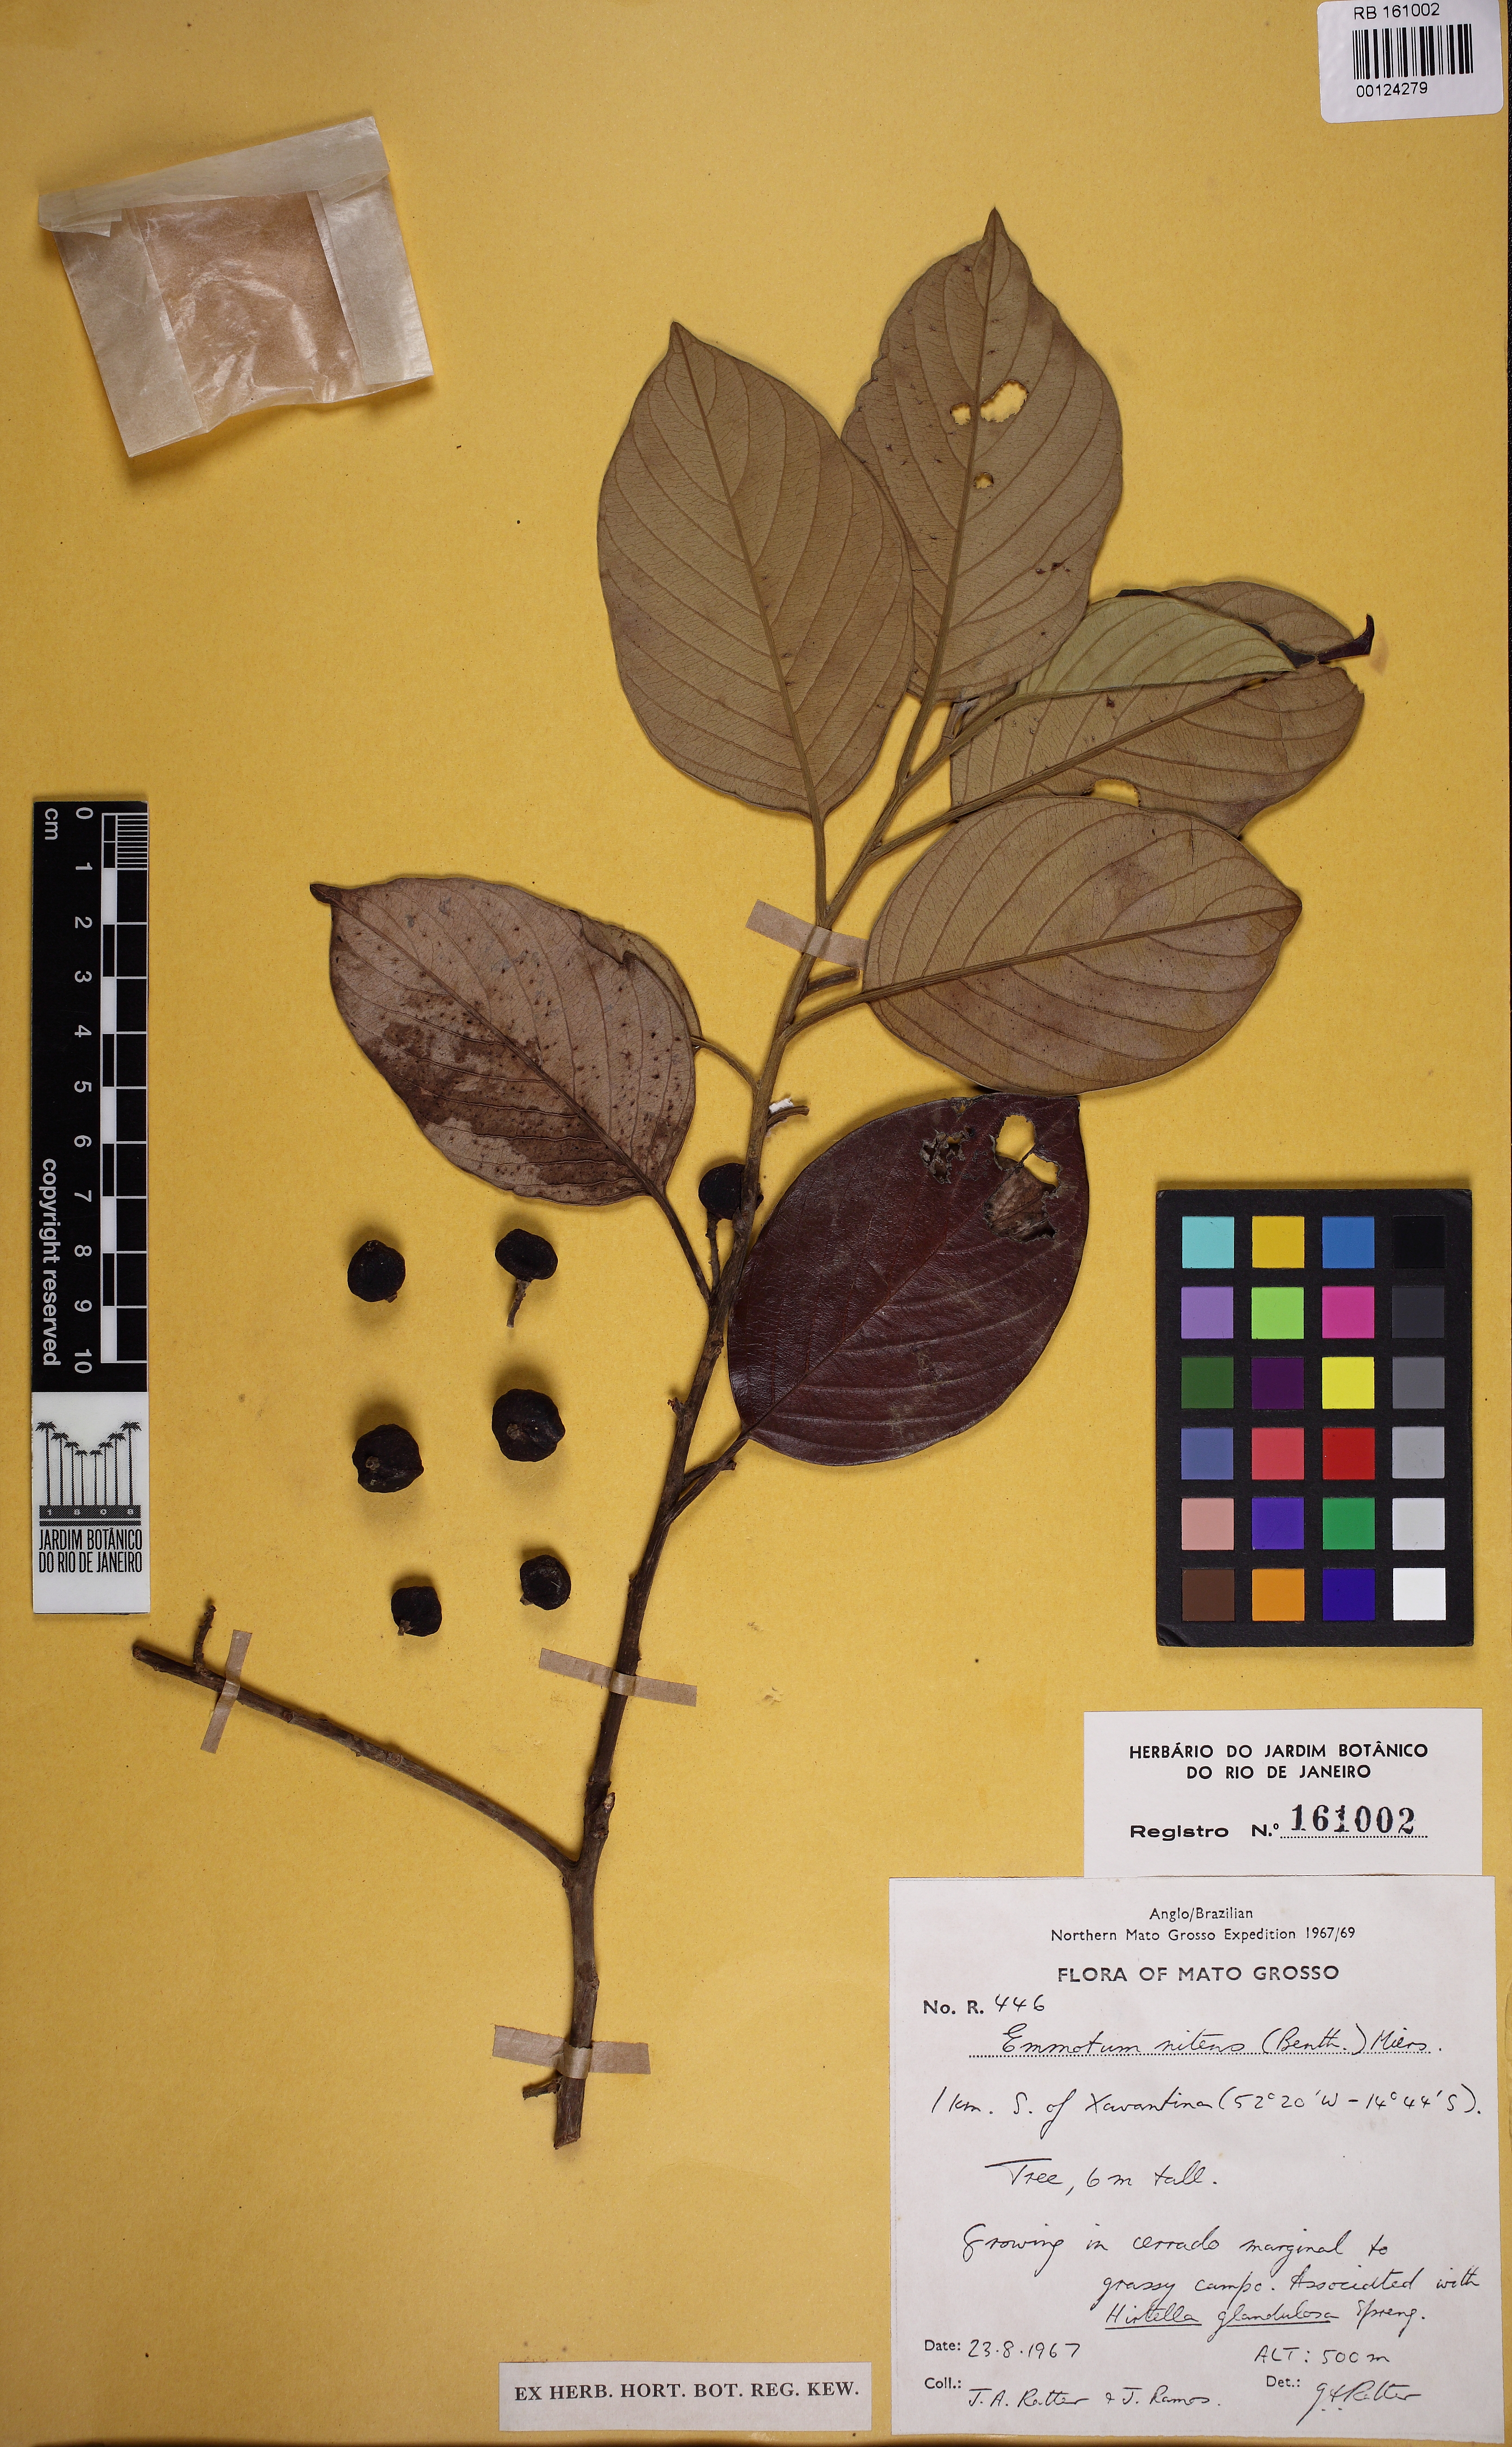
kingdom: Plantae
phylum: Tracheophyta
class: Magnoliopsida
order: Metteniusales
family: Metteniusaceae
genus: Emmotum
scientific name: Emmotum nitens
